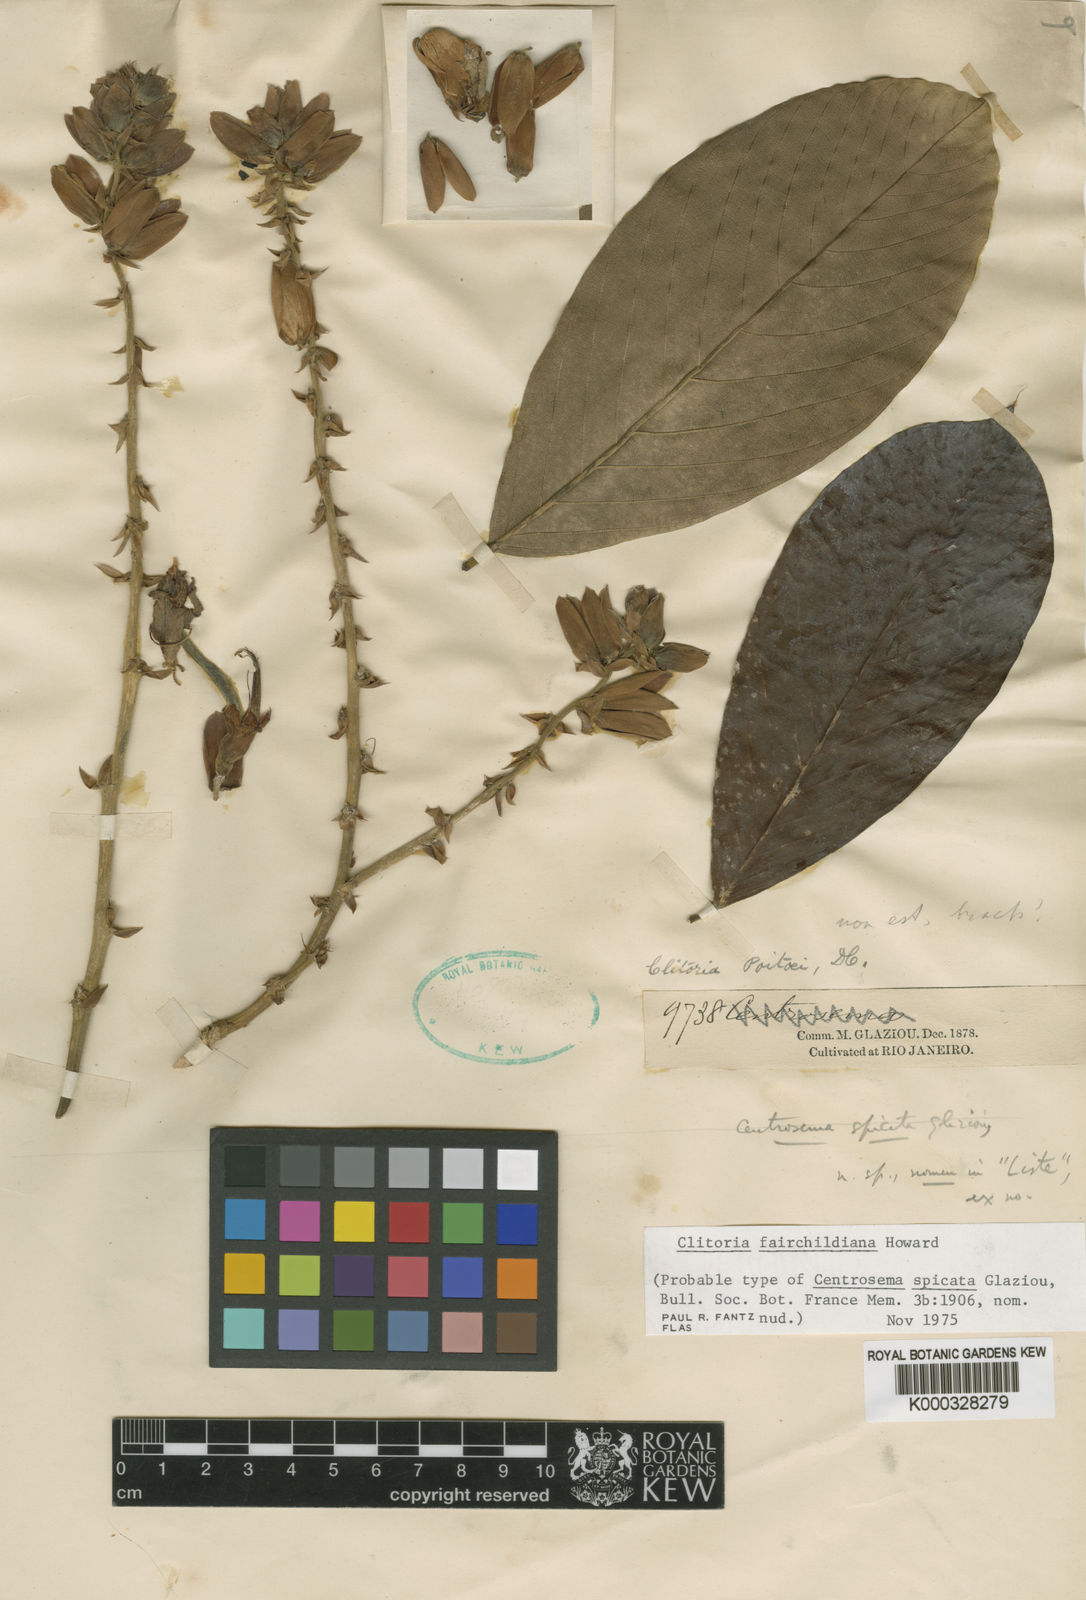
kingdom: Plantae
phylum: Tracheophyta
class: Magnoliopsida
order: Fabales
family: Fabaceae
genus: Clitoria
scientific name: Clitoria fairchildiana
